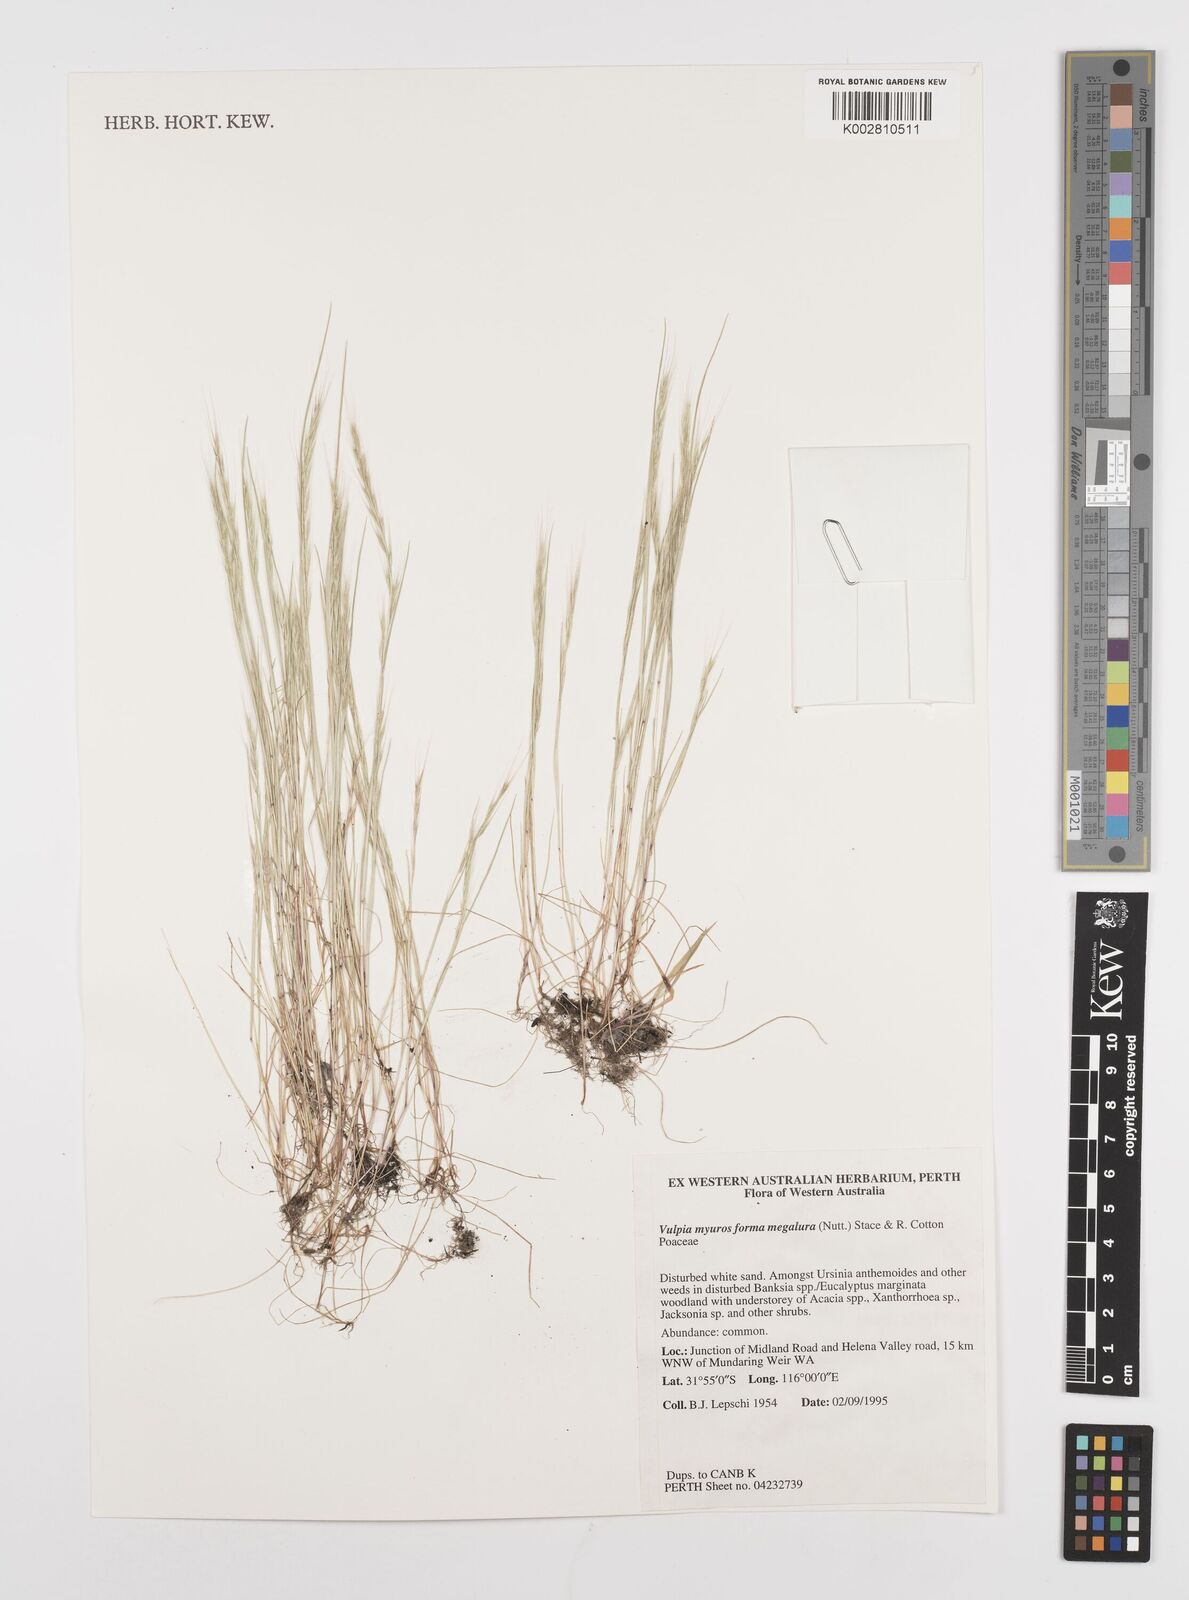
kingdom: Plantae
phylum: Tracheophyta
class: Liliopsida
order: Poales
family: Poaceae
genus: Festuca
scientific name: Festuca myuros
